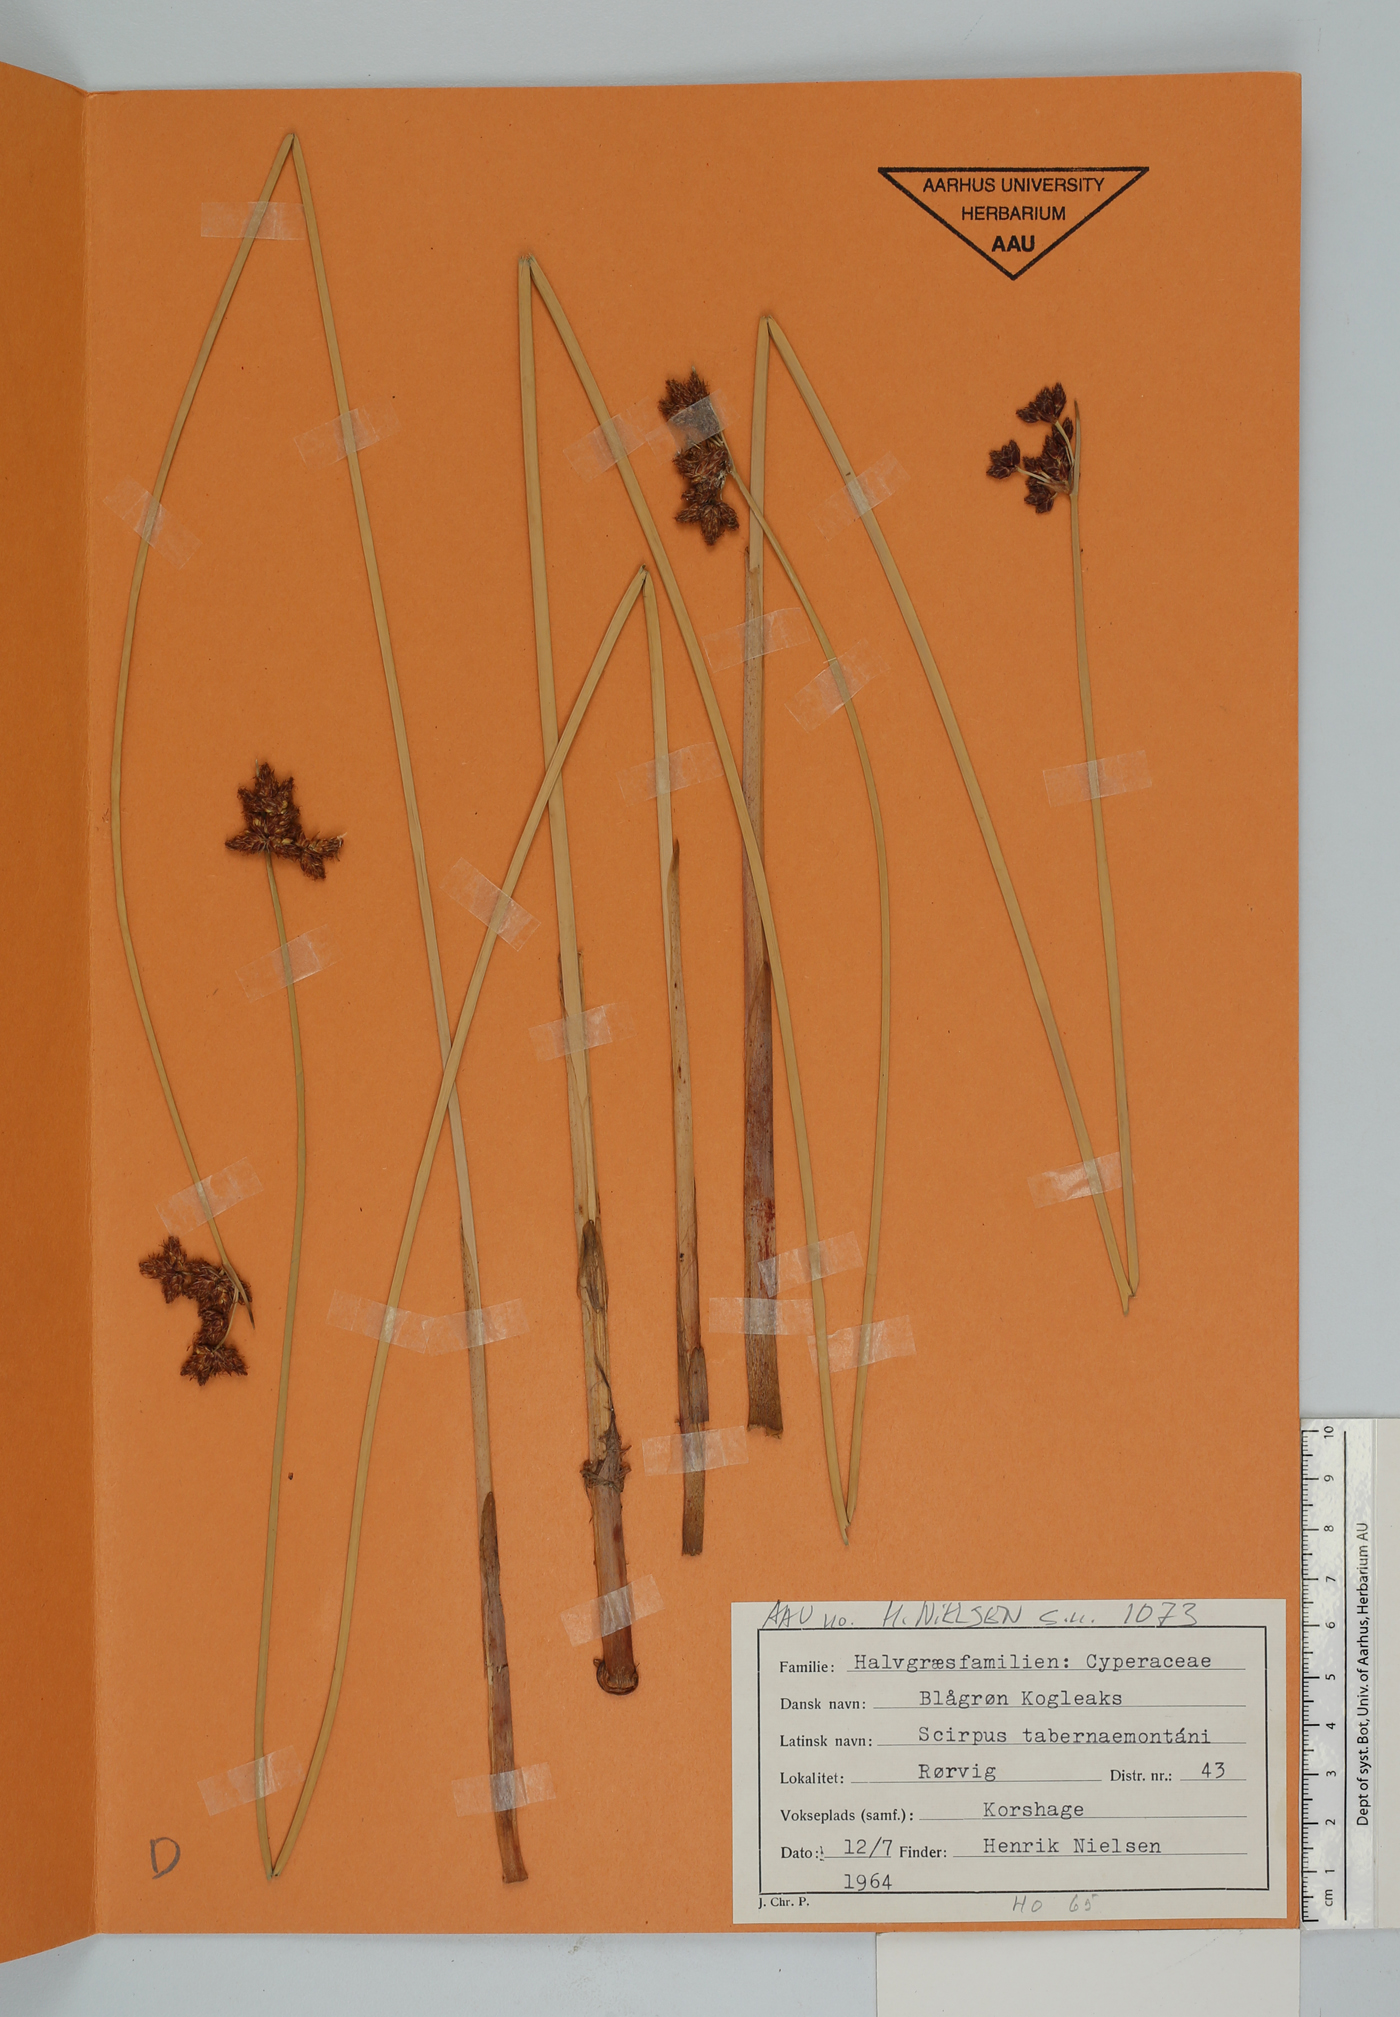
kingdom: Plantae
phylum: Tracheophyta
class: Liliopsida
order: Poales
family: Cyperaceae
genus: Schoenoplectus
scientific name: Schoenoplectus tabernaemontani
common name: Grey club-rush
